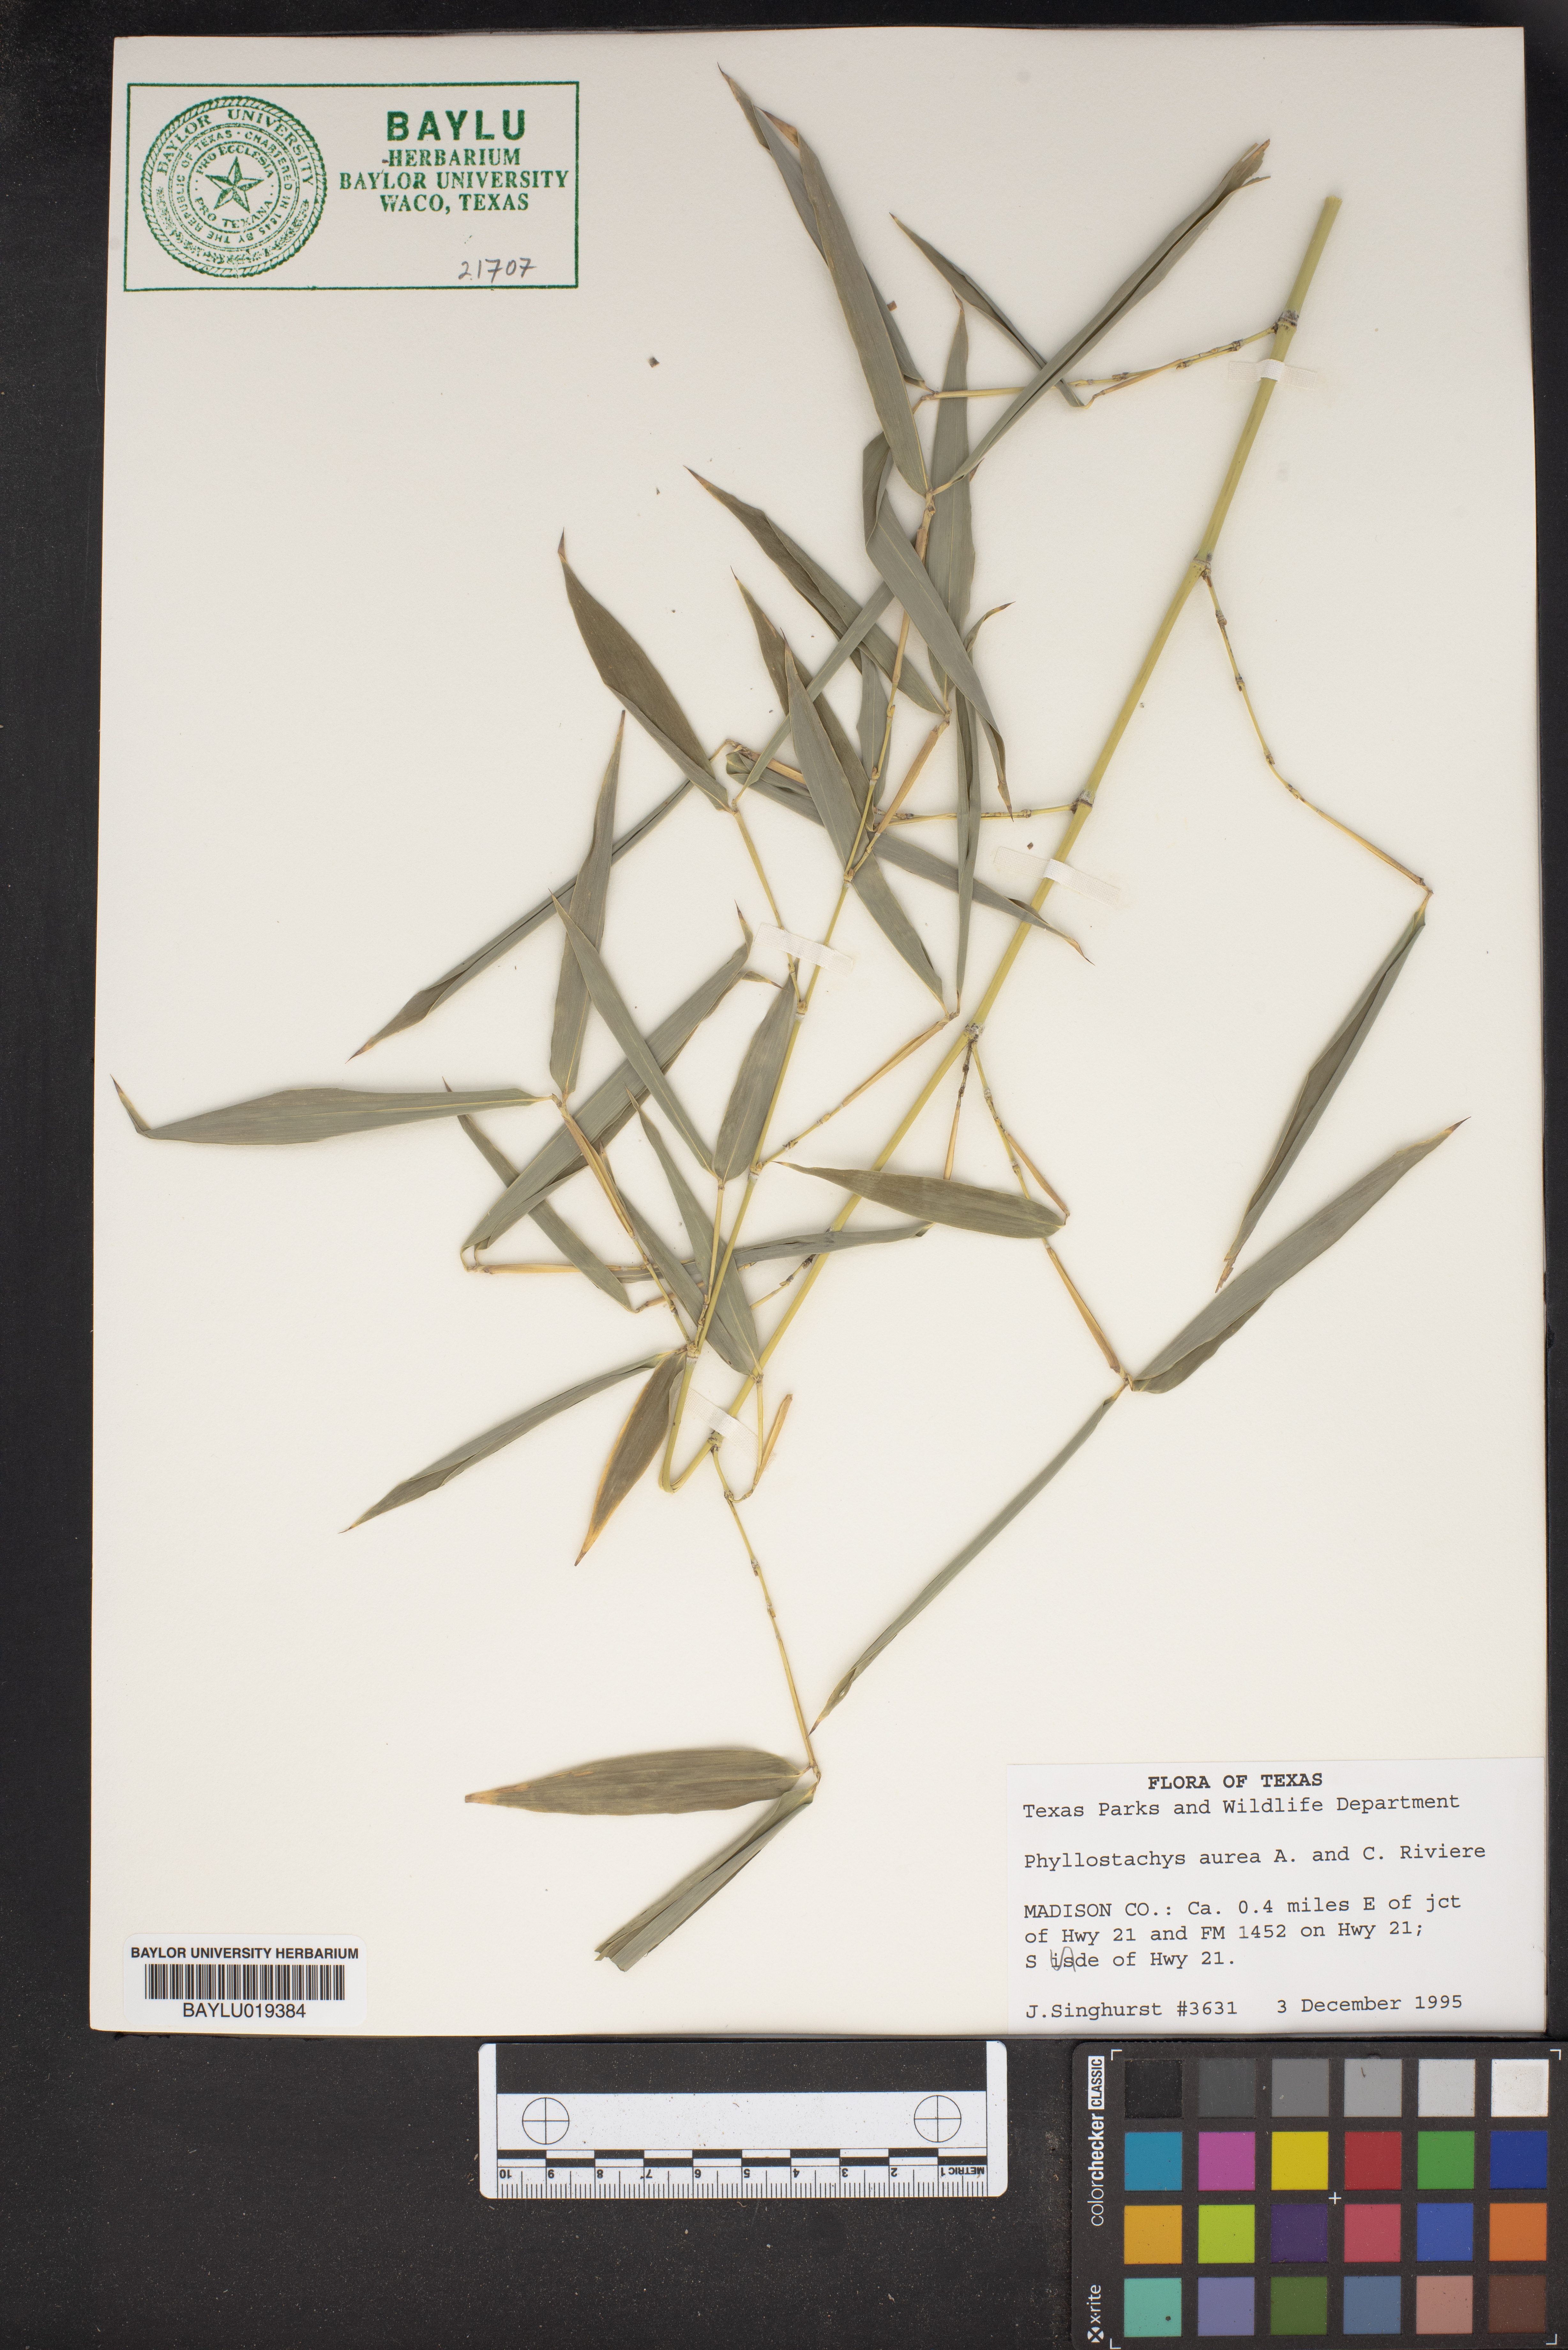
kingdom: Plantae
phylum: Tracheophyta
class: Liliopsida
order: Poales
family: Poaceae
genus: Phyllostachys
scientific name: Phyllostachys aurea
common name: Golden bamboo
